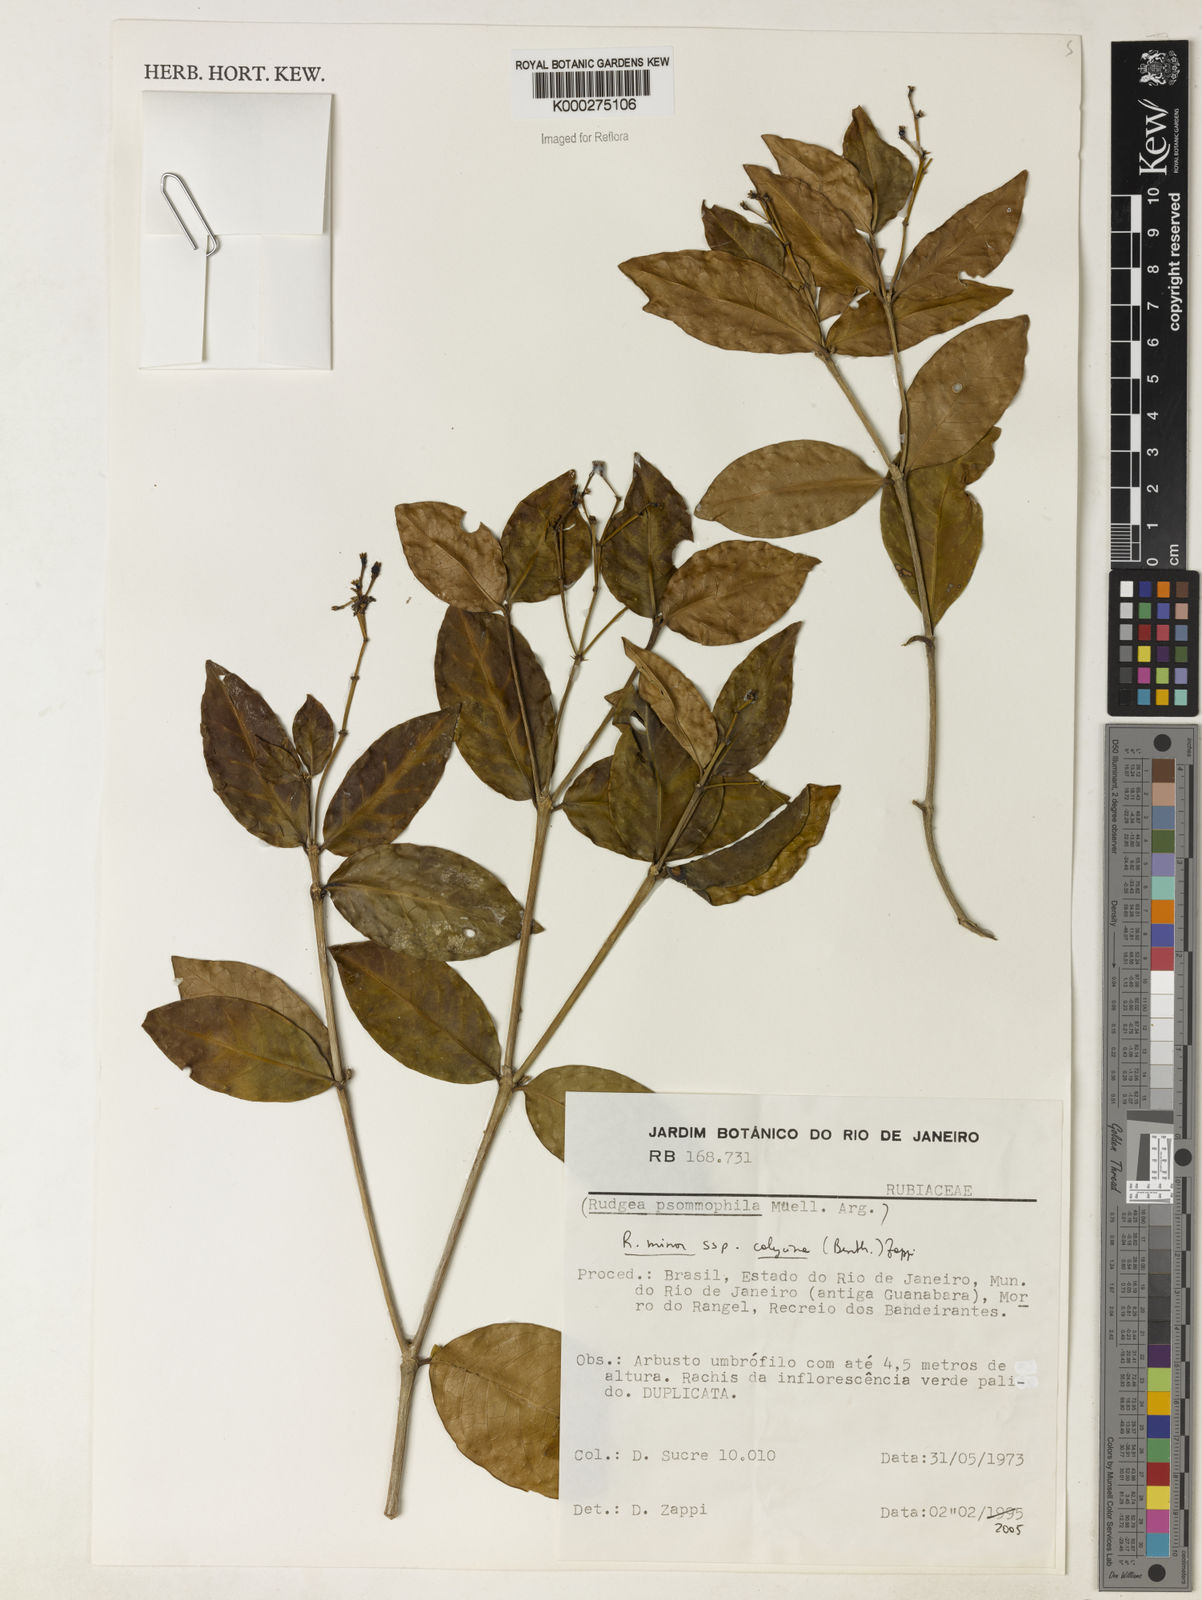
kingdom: Plantae
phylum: Tracheophyta
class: Magnoliopsida
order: Gentianales
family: Rubiaceae
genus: Rudgea
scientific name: Rudgea minor
